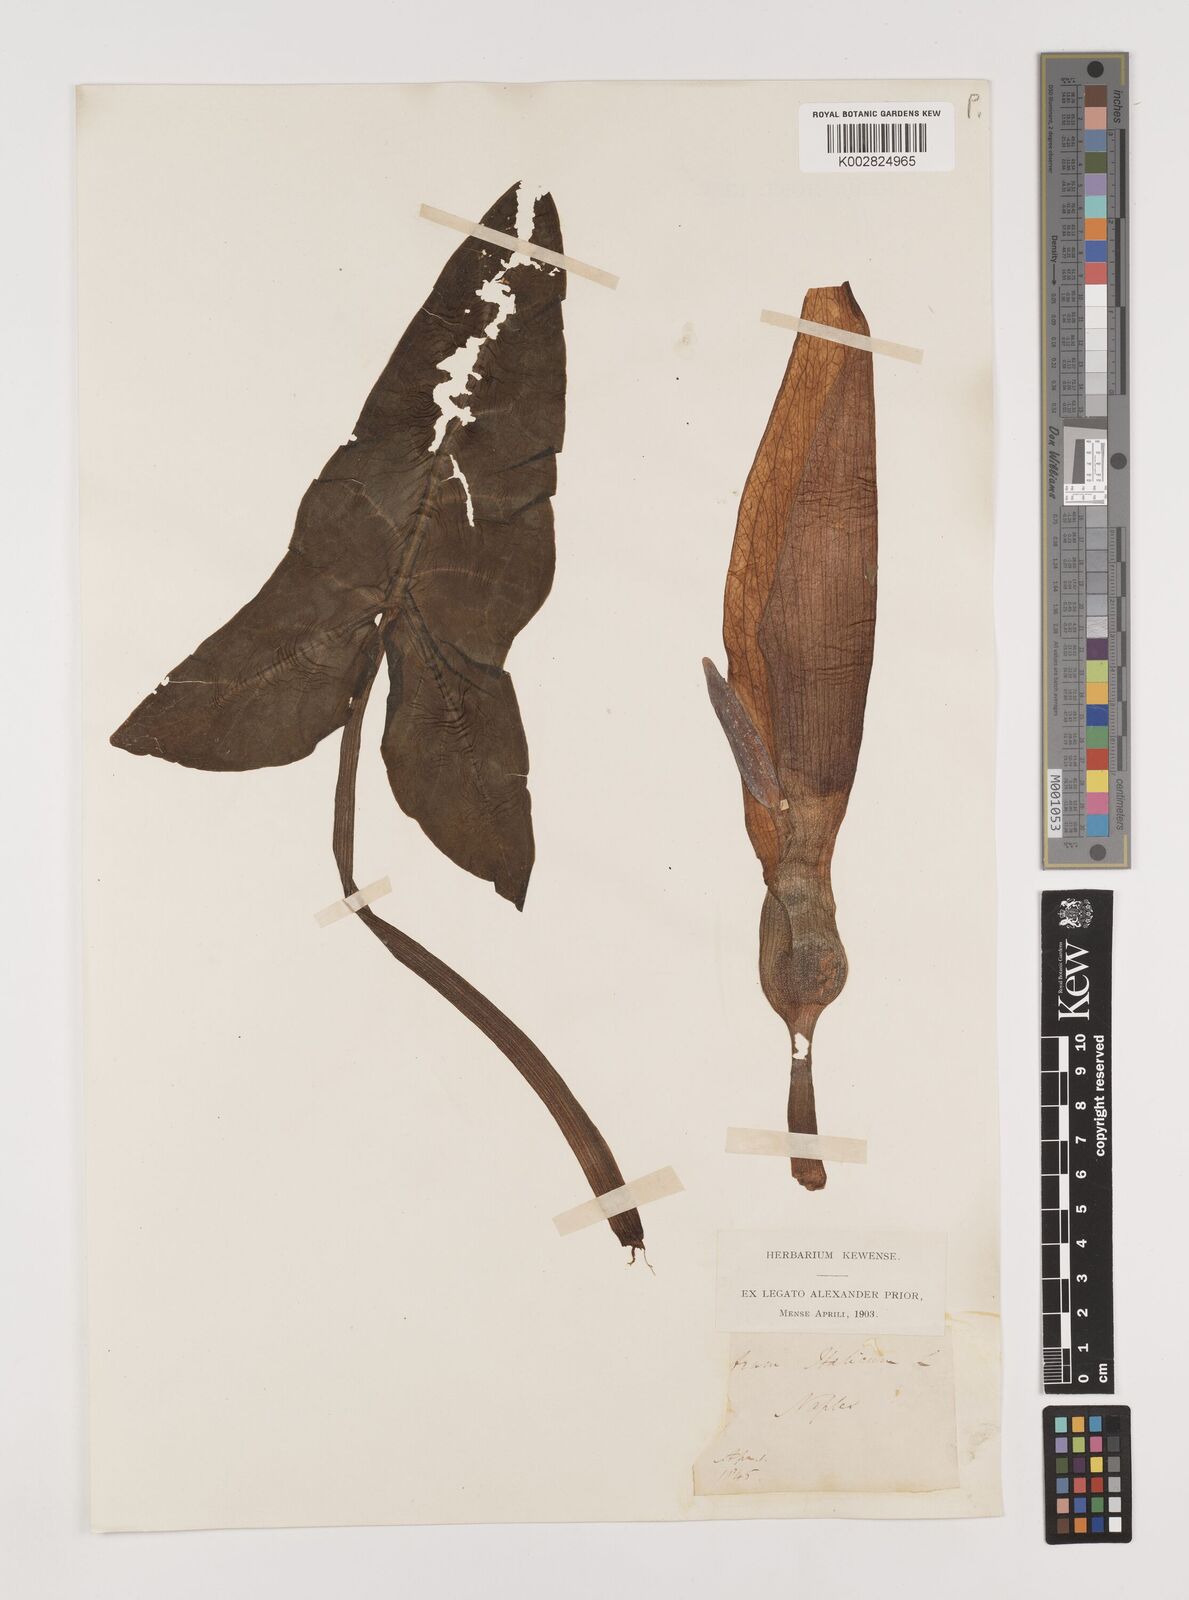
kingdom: Plantae
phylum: Tracheophyta
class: Liliopsida
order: Alismatales
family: Araceae
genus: Arum
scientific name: Arum italicum
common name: Italian lords-and-ladies
